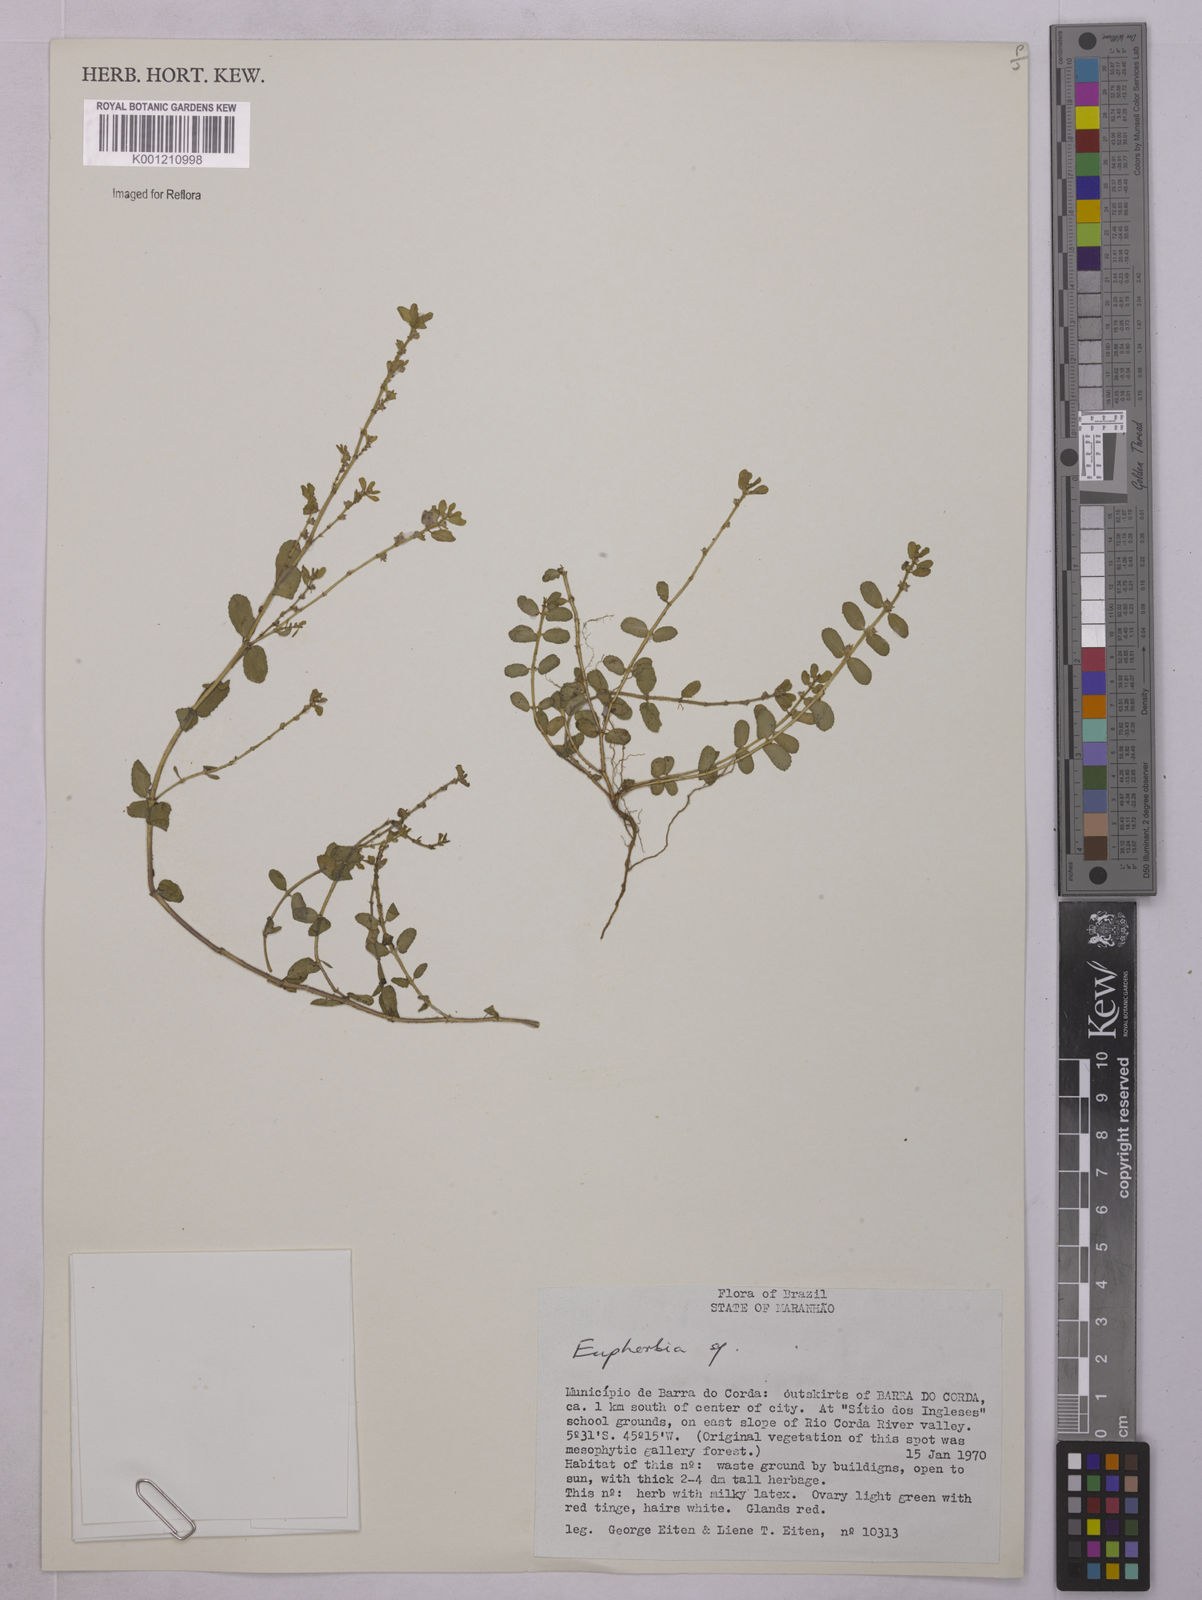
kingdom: Plantae
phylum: Tracheophyta
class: Magnoliopsida
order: Malpighiales
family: Euphorbiaceae
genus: Euphorbia
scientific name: Euphorbia
